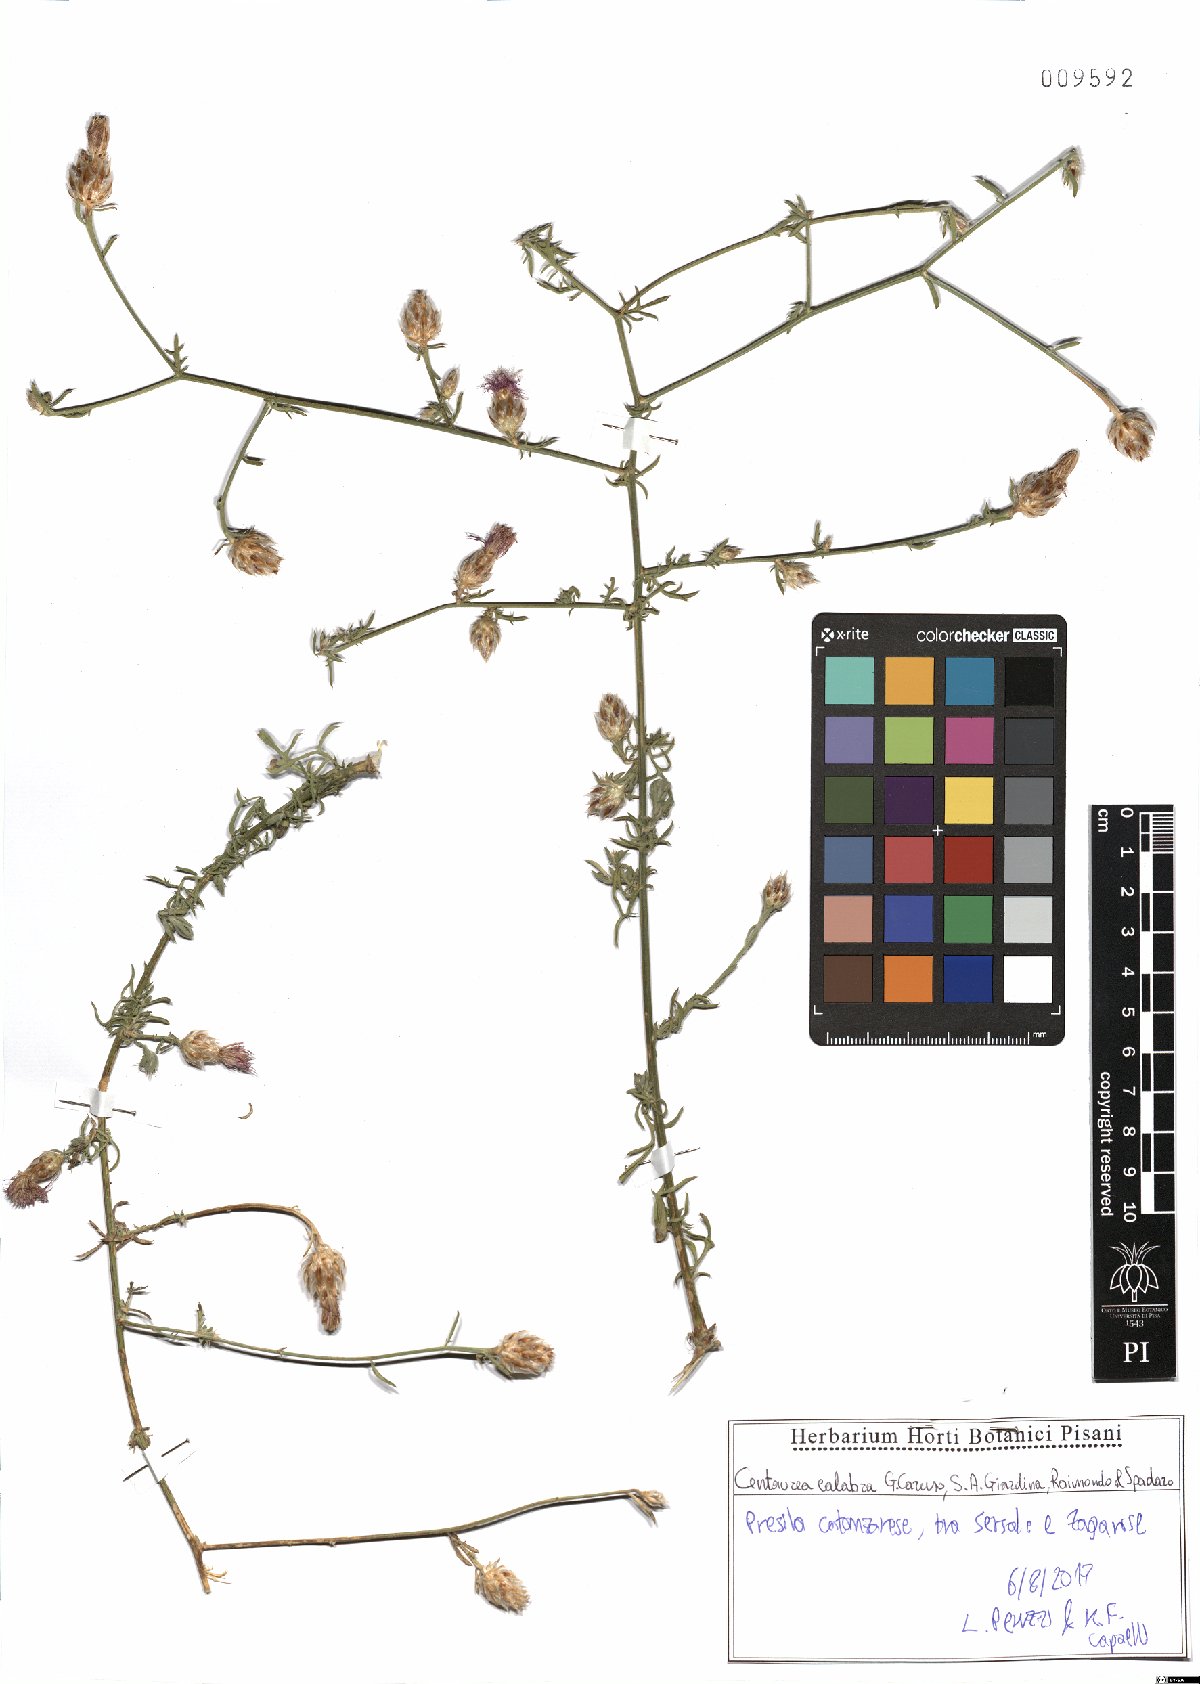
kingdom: Plantae
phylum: Tracheophyta
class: Magnoliopsida
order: Asterales
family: Asteraceae
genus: Centaurea
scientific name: Centaurea calabra
